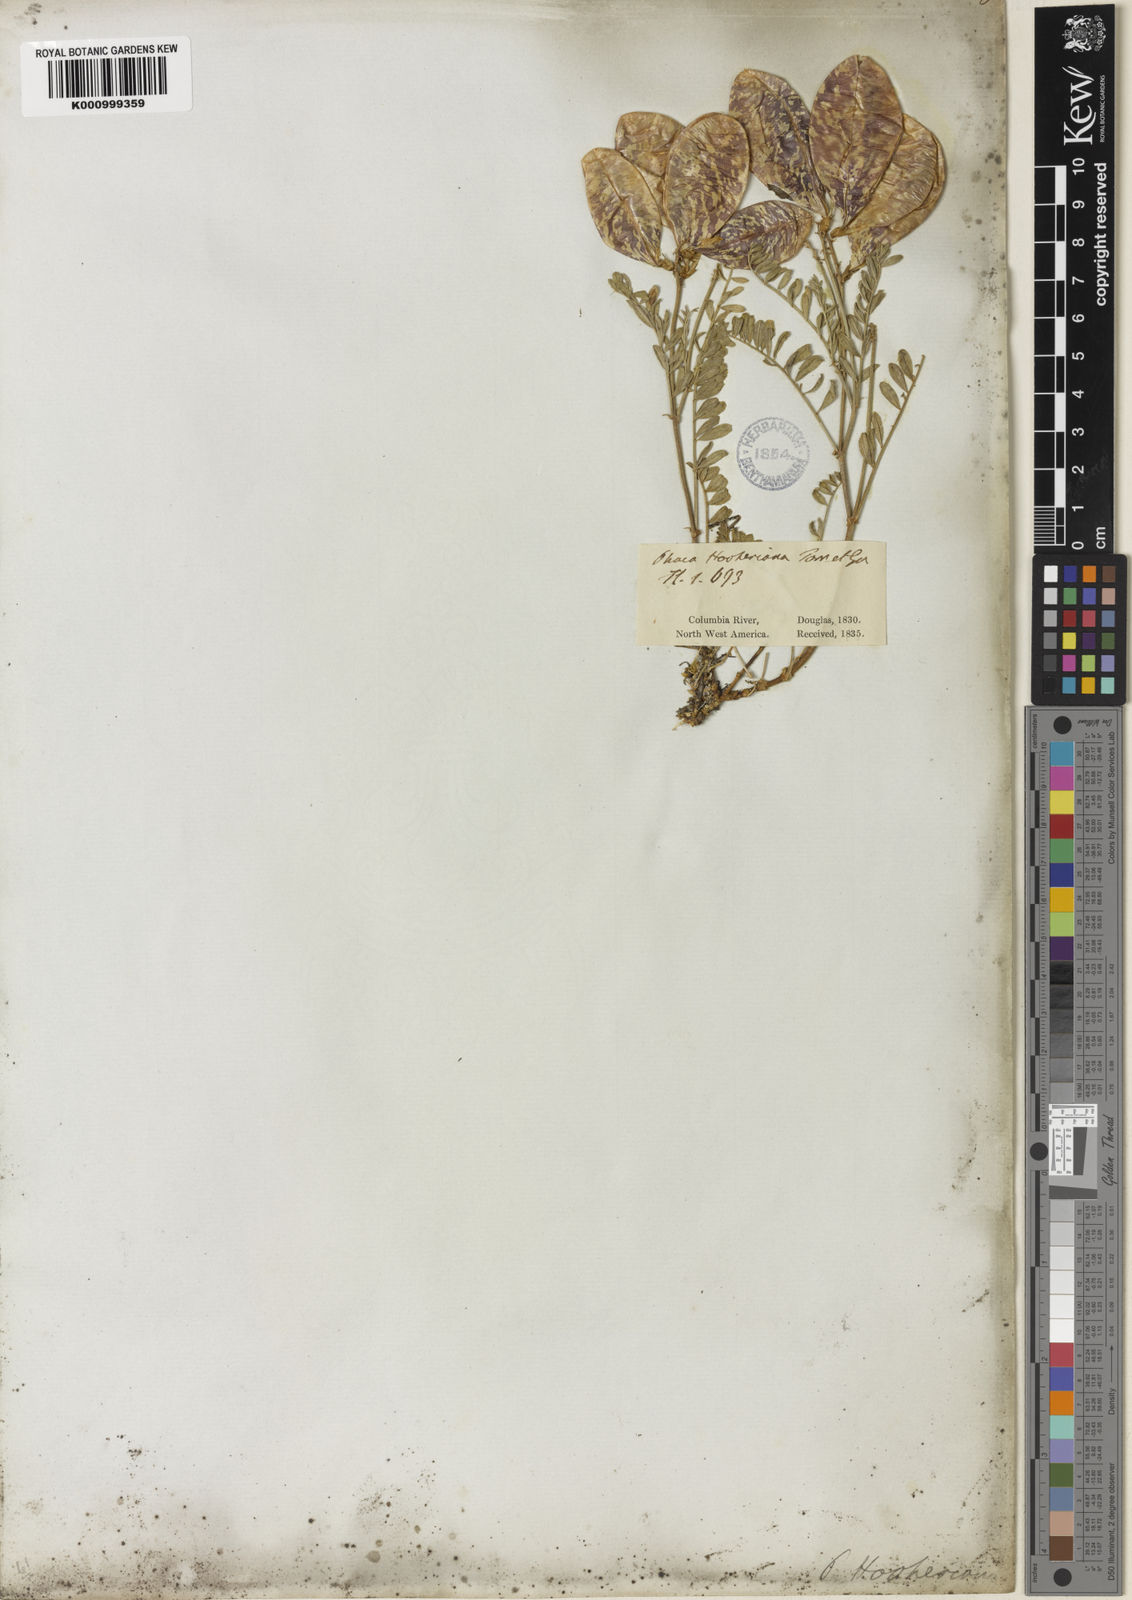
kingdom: Plantae
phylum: Tracheophyta
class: Magnoliopsida
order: Fabales
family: Fabaceae
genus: Astragalus
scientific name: Astragalus whitneyi
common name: Balloonpod milkvetch
